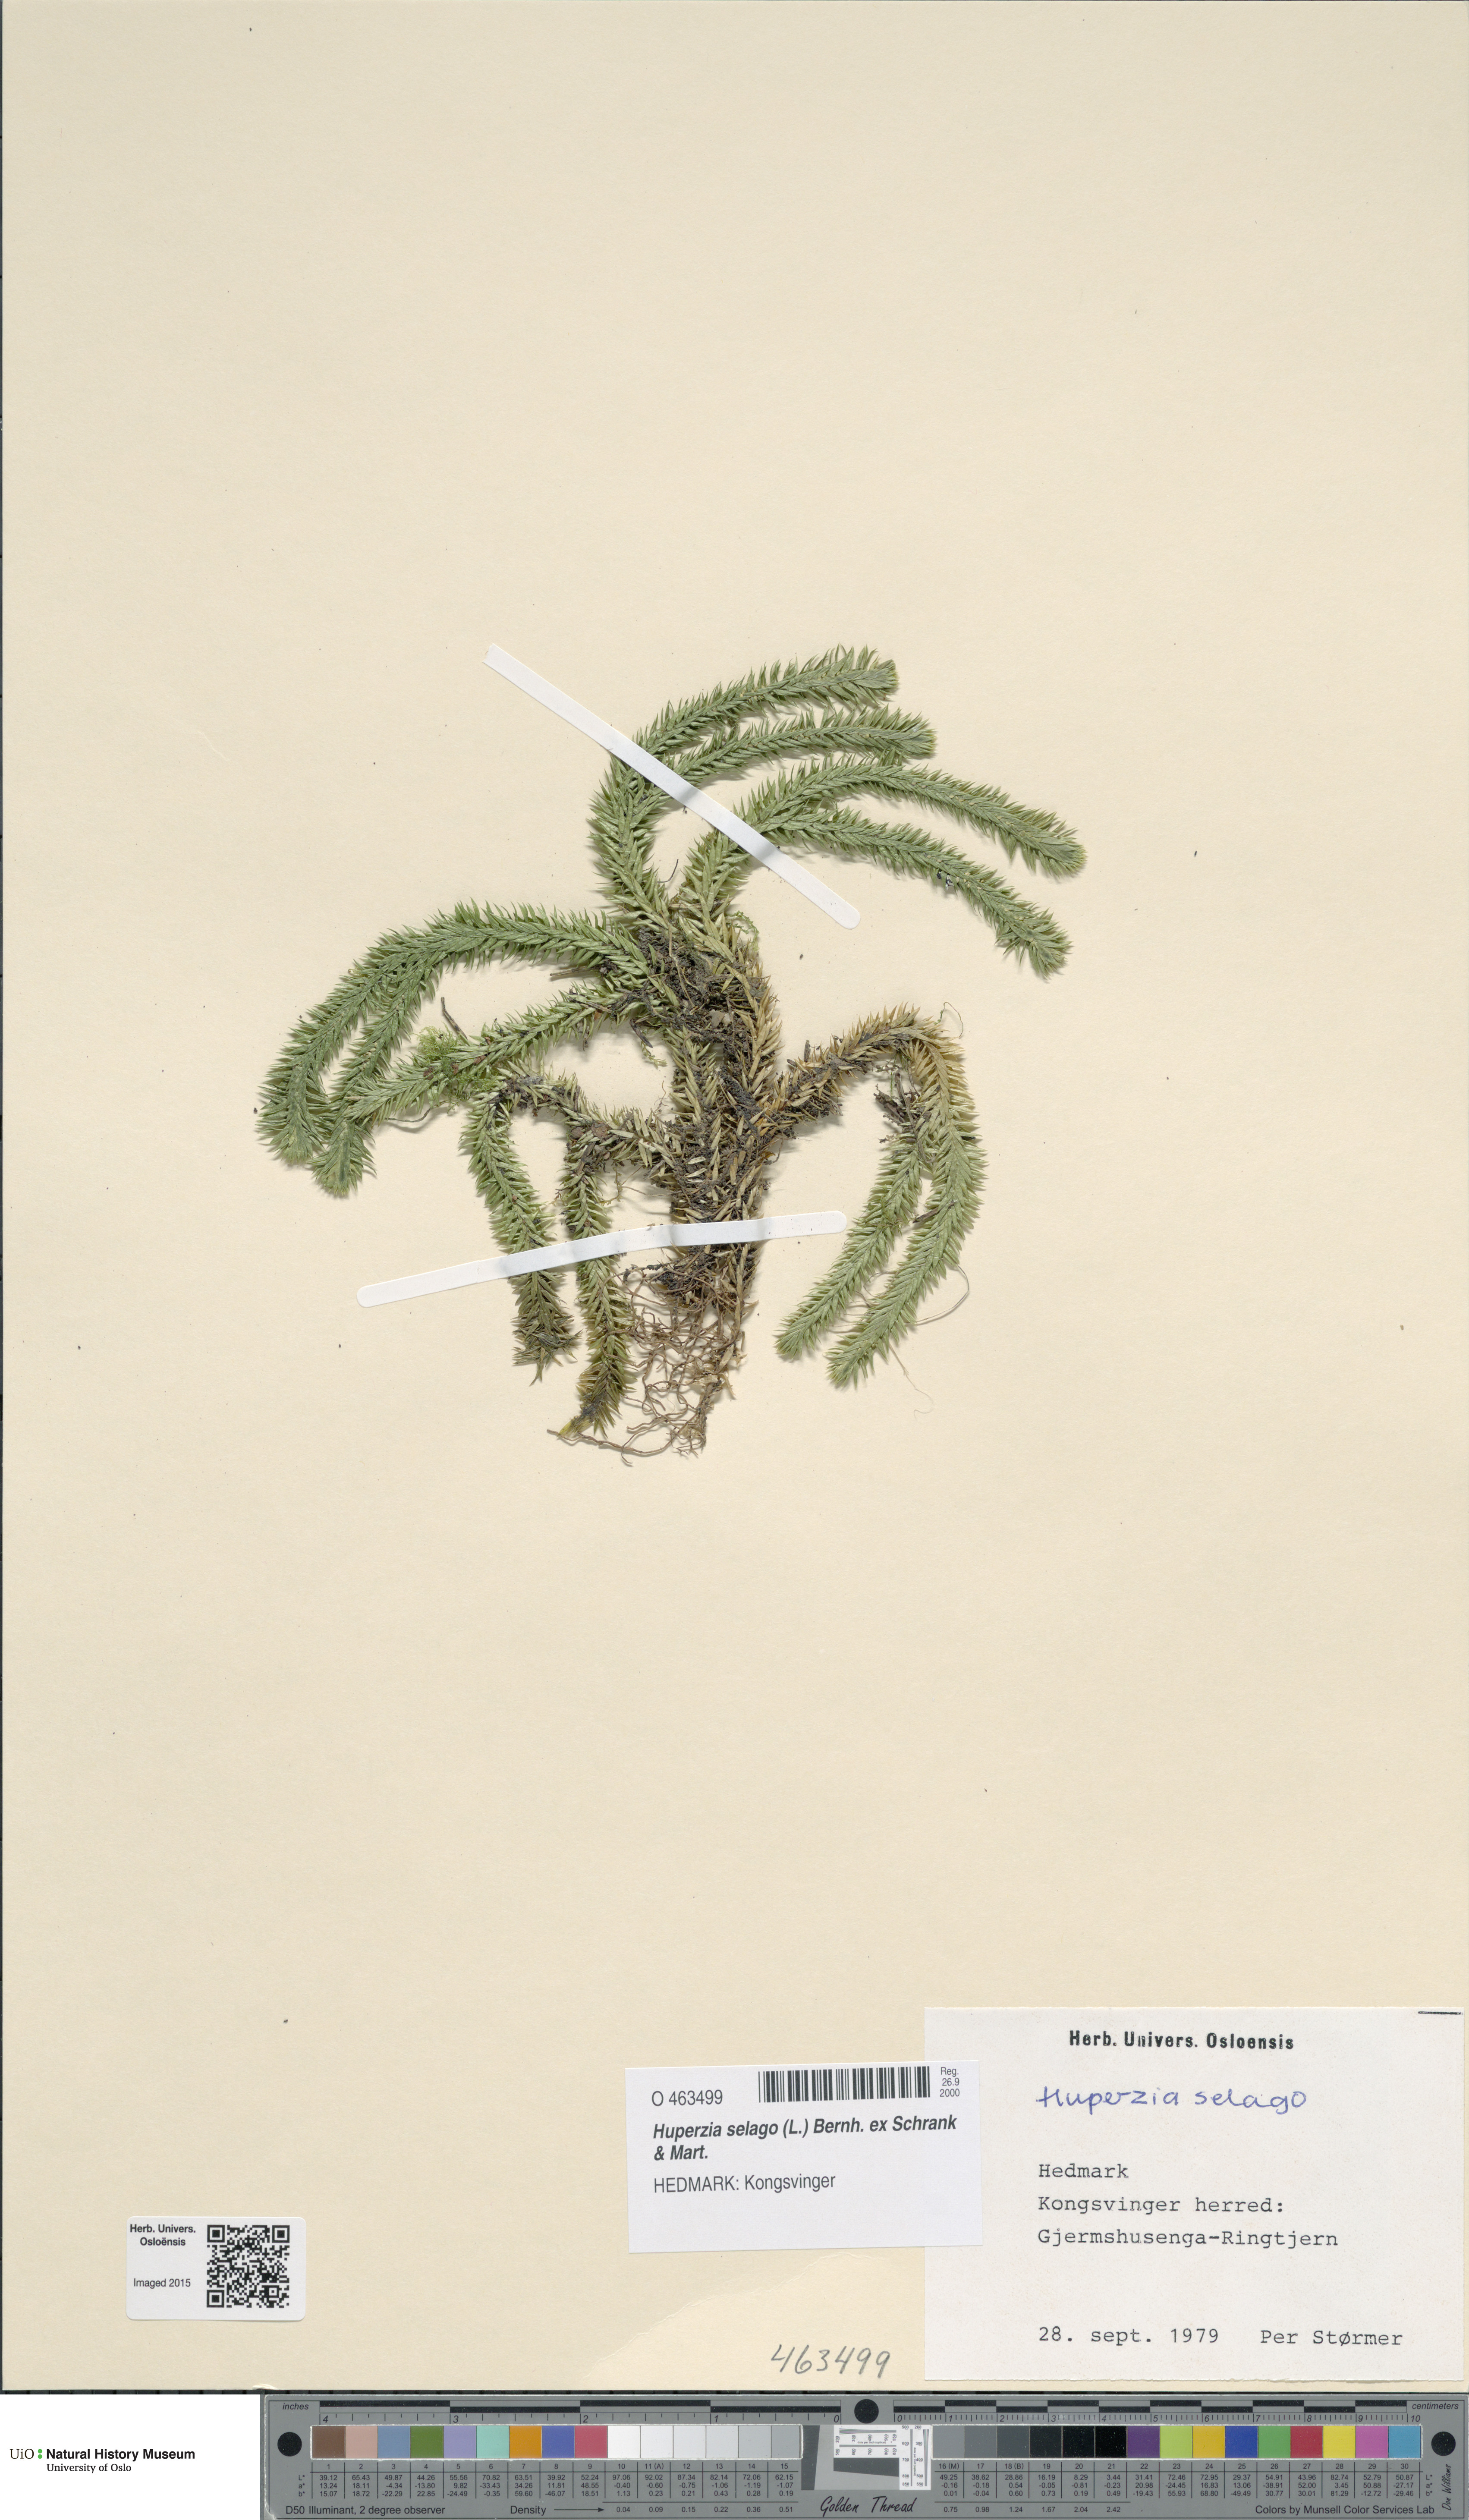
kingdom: Plantae
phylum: Tracheophyta
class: Lycopodiopsida
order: Lycopodiales
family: Lycopodiaceae
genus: Huperzia
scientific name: Huperzia selago
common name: Northern firmoss
